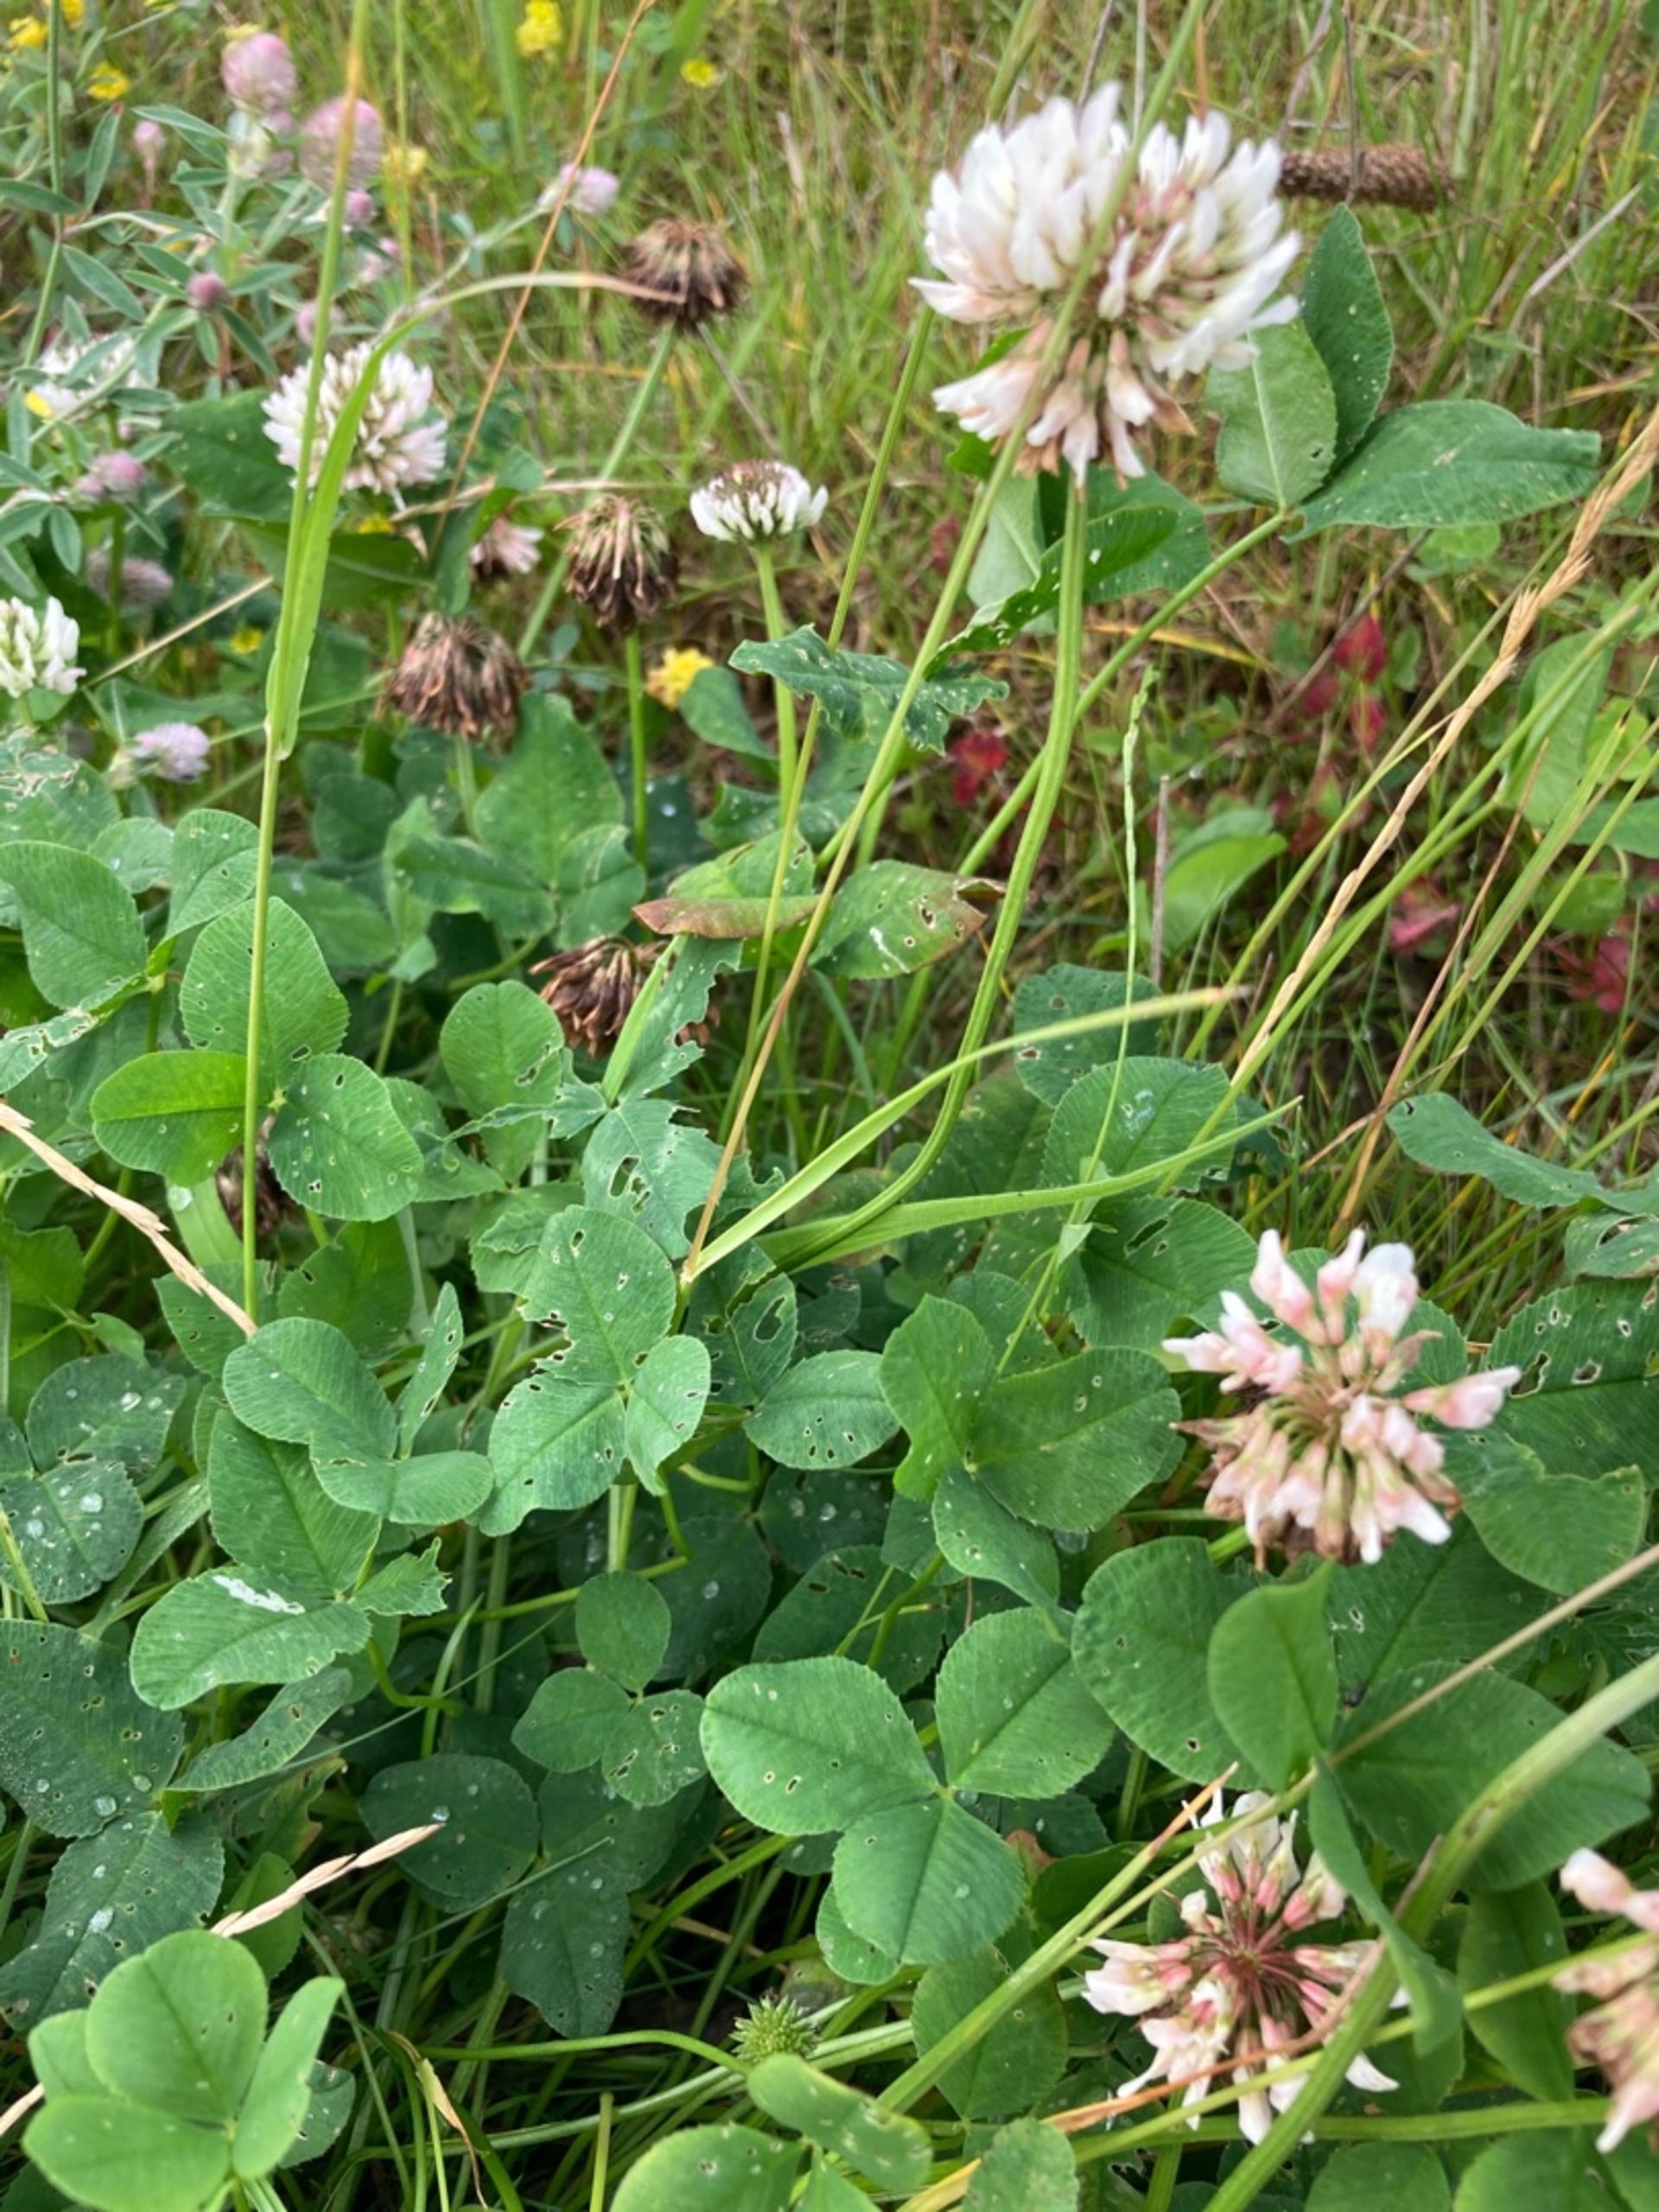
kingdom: Plantae
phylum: Tracheophyta
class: Magnoliopsida
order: Fabales
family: Fabaceae
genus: Trifolium
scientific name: Trifolium repens
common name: Hvid-kløver
